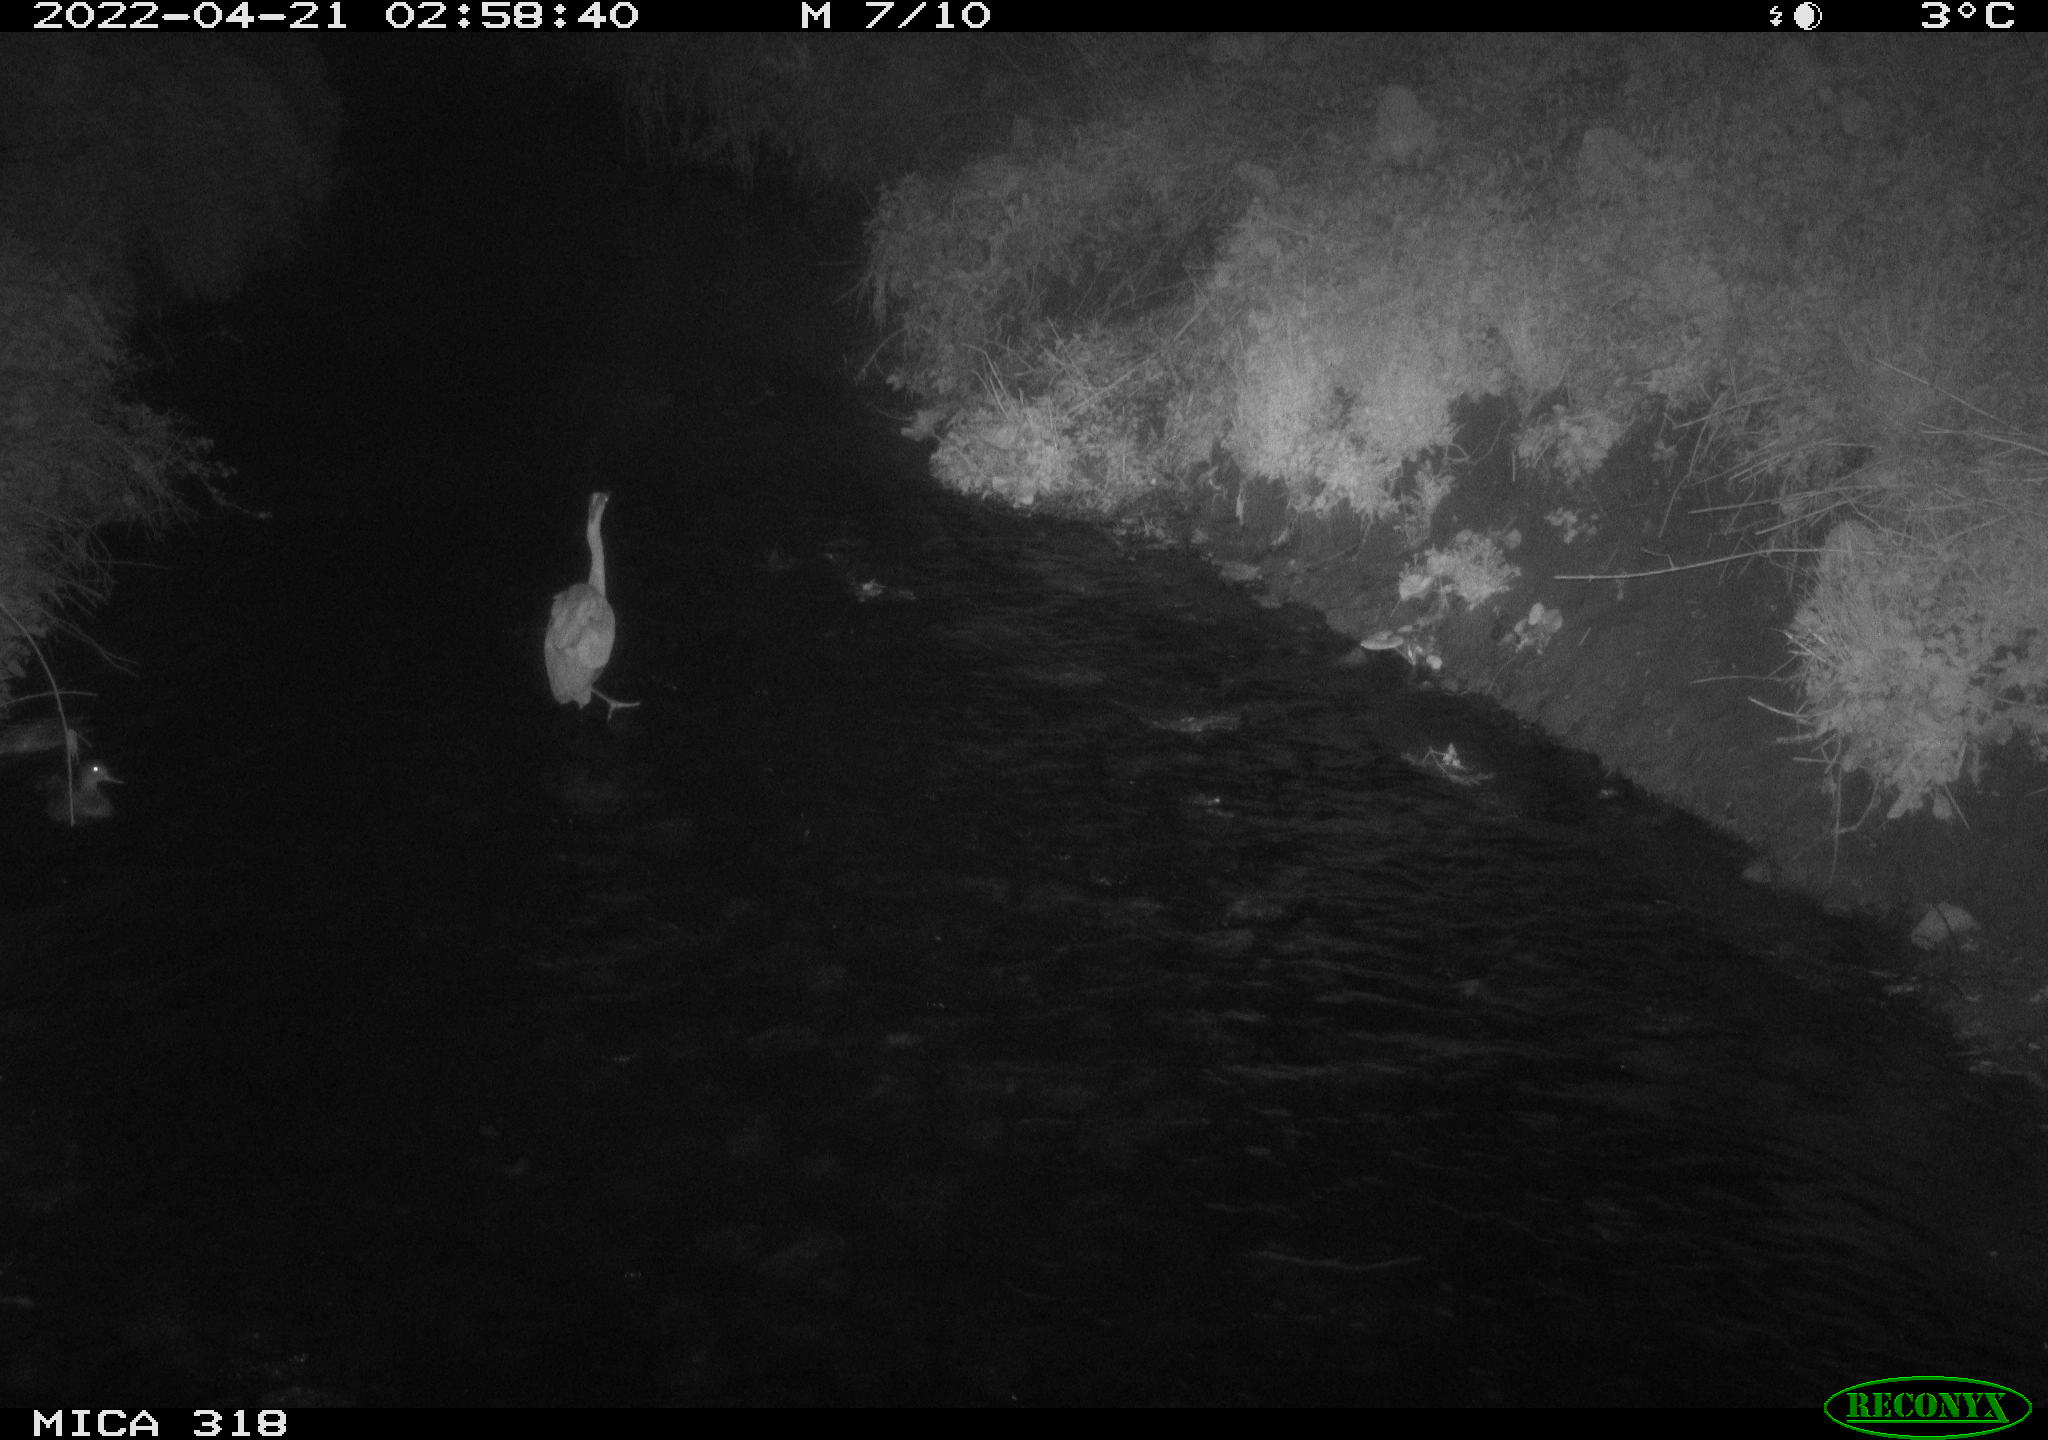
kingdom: Animalia
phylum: Chordata
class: Aves
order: Pelecaniformes
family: Ardeidae
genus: Ardea
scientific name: Ardea cinerea
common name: Grey heron
